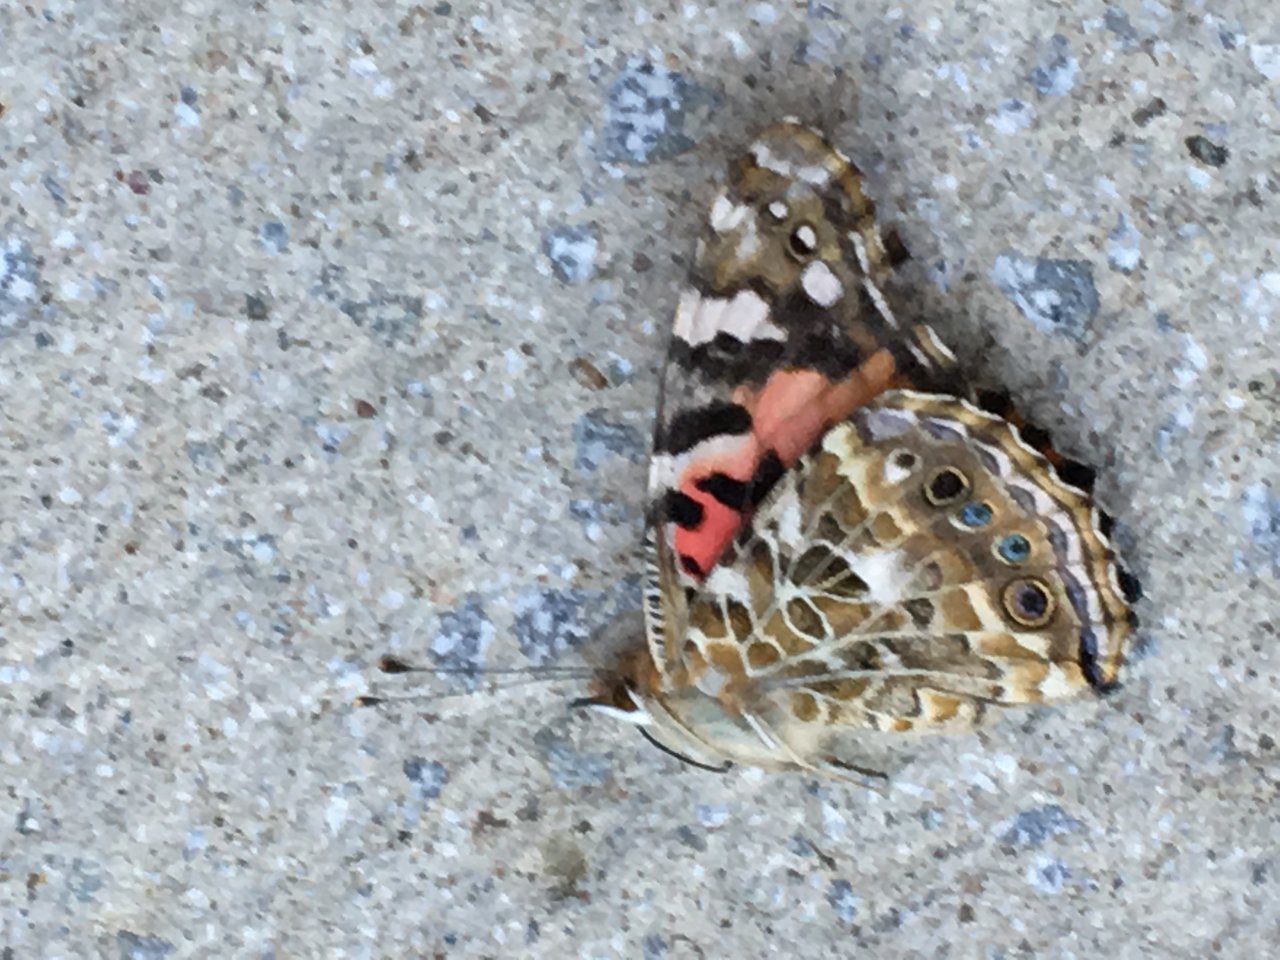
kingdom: Animalia
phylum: Arthropoda
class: Insecta
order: Lepidoptera
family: Nymphalidae
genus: Vanessa
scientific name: Vanessa cardui
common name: Painted Lady
